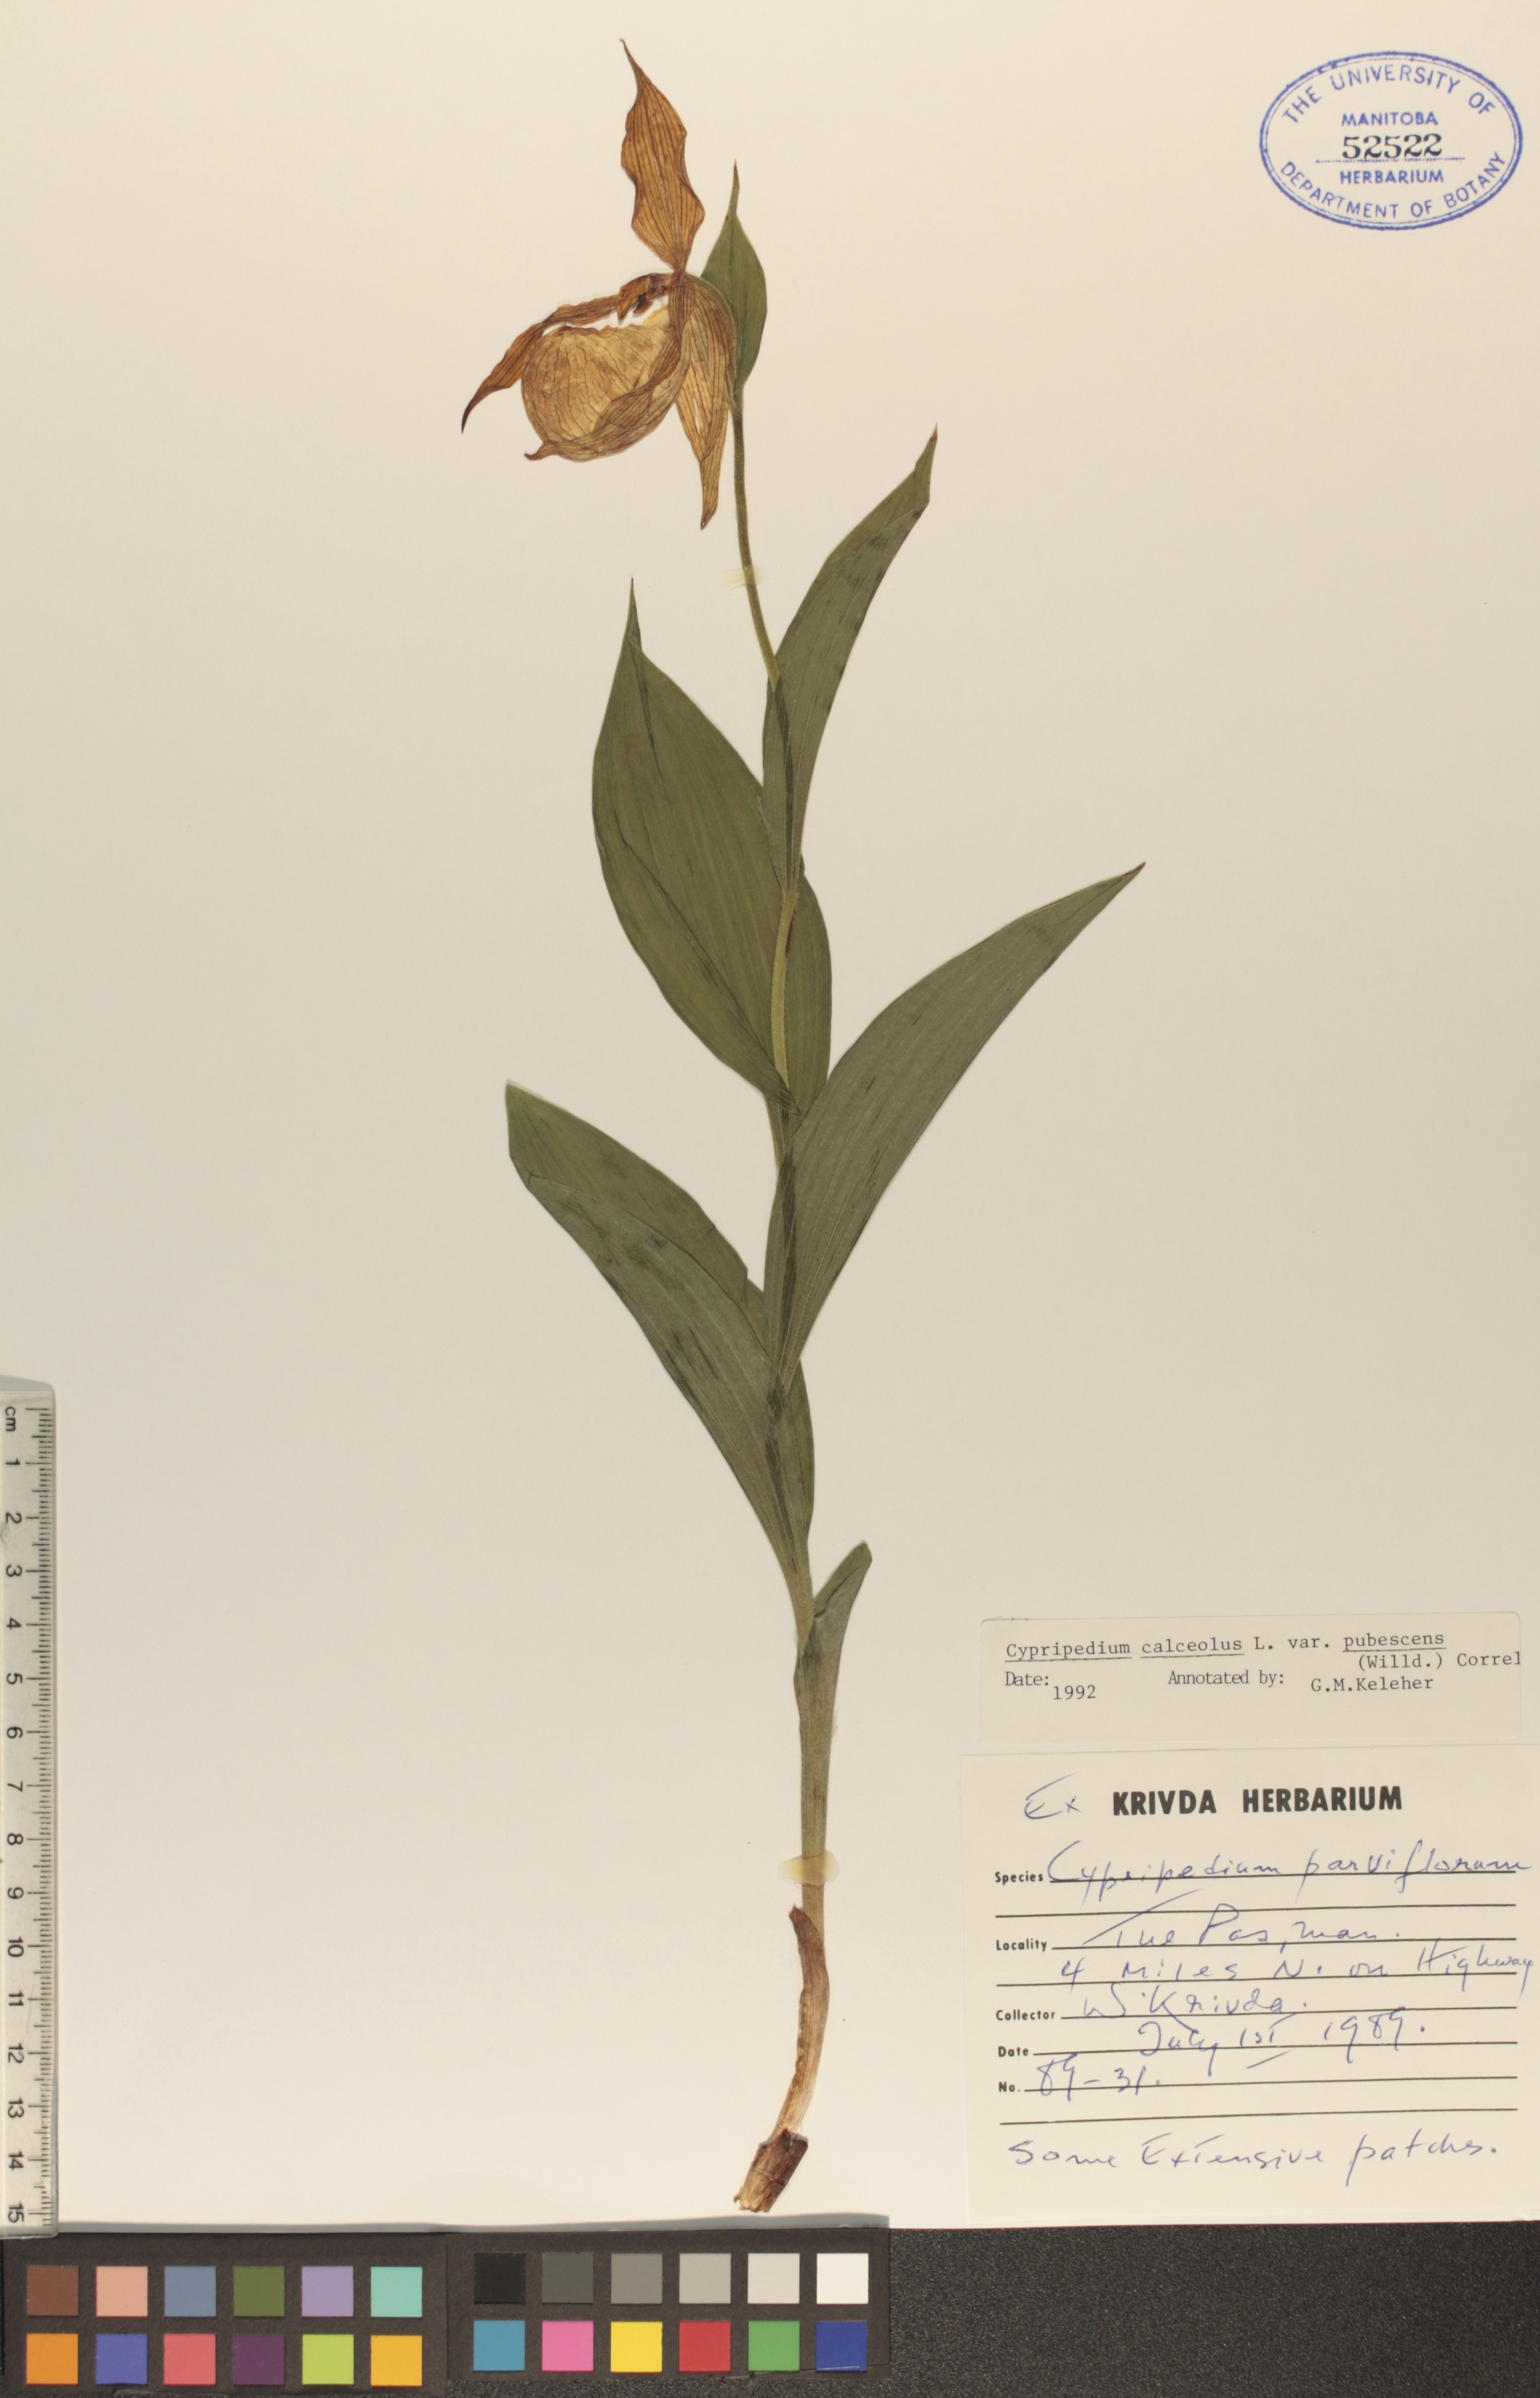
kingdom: Plantae
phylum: Tracheophyta
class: Liliopsida
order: Asparagales
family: Orchidaceae
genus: Cypripedium
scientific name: Cypripedium parviflorum
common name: American yellow lady's-slipper
